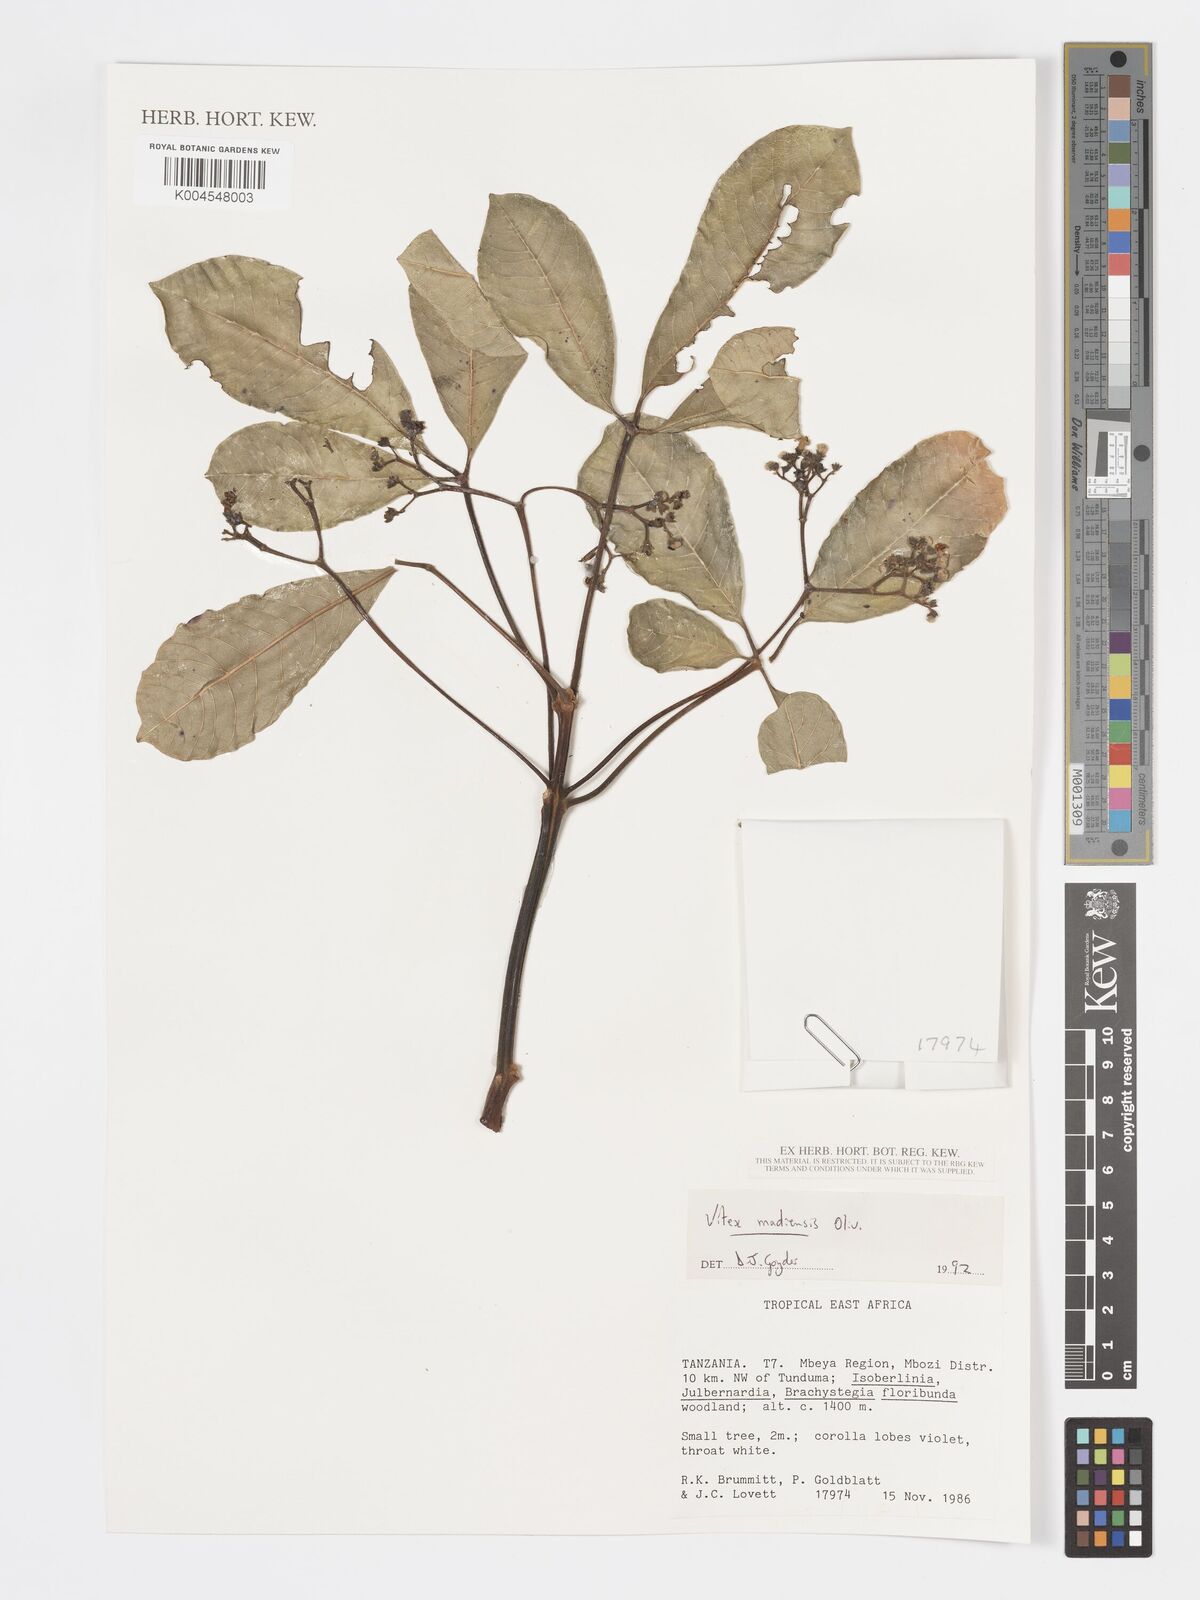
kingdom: Plantae
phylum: Tracheophyta
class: Magnoliopsida
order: Lamiales
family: Lamiaceae
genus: Vitex
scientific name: Vitex madiensis
